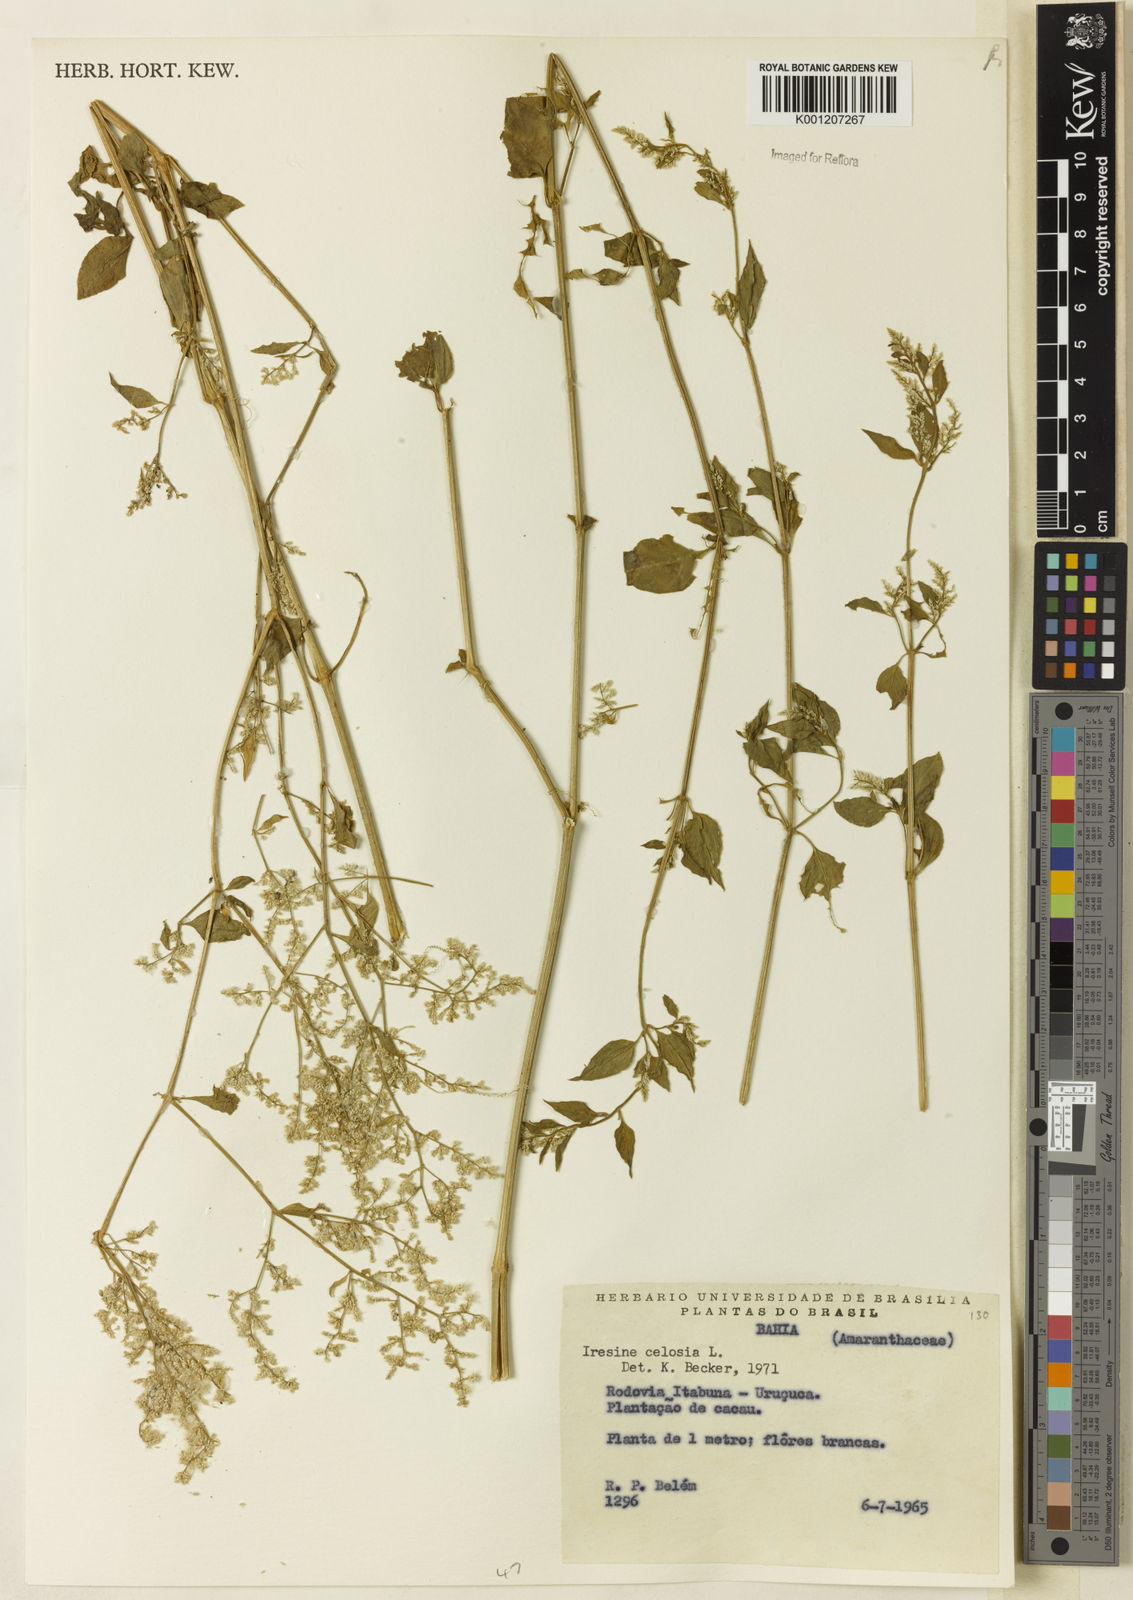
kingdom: Plantae
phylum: Tracheophyta
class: Magnoliopsida
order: Caryophyllales
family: Amaranthaceae
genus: Iresine
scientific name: Iresine rhizomatosa
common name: Juda's-bush
